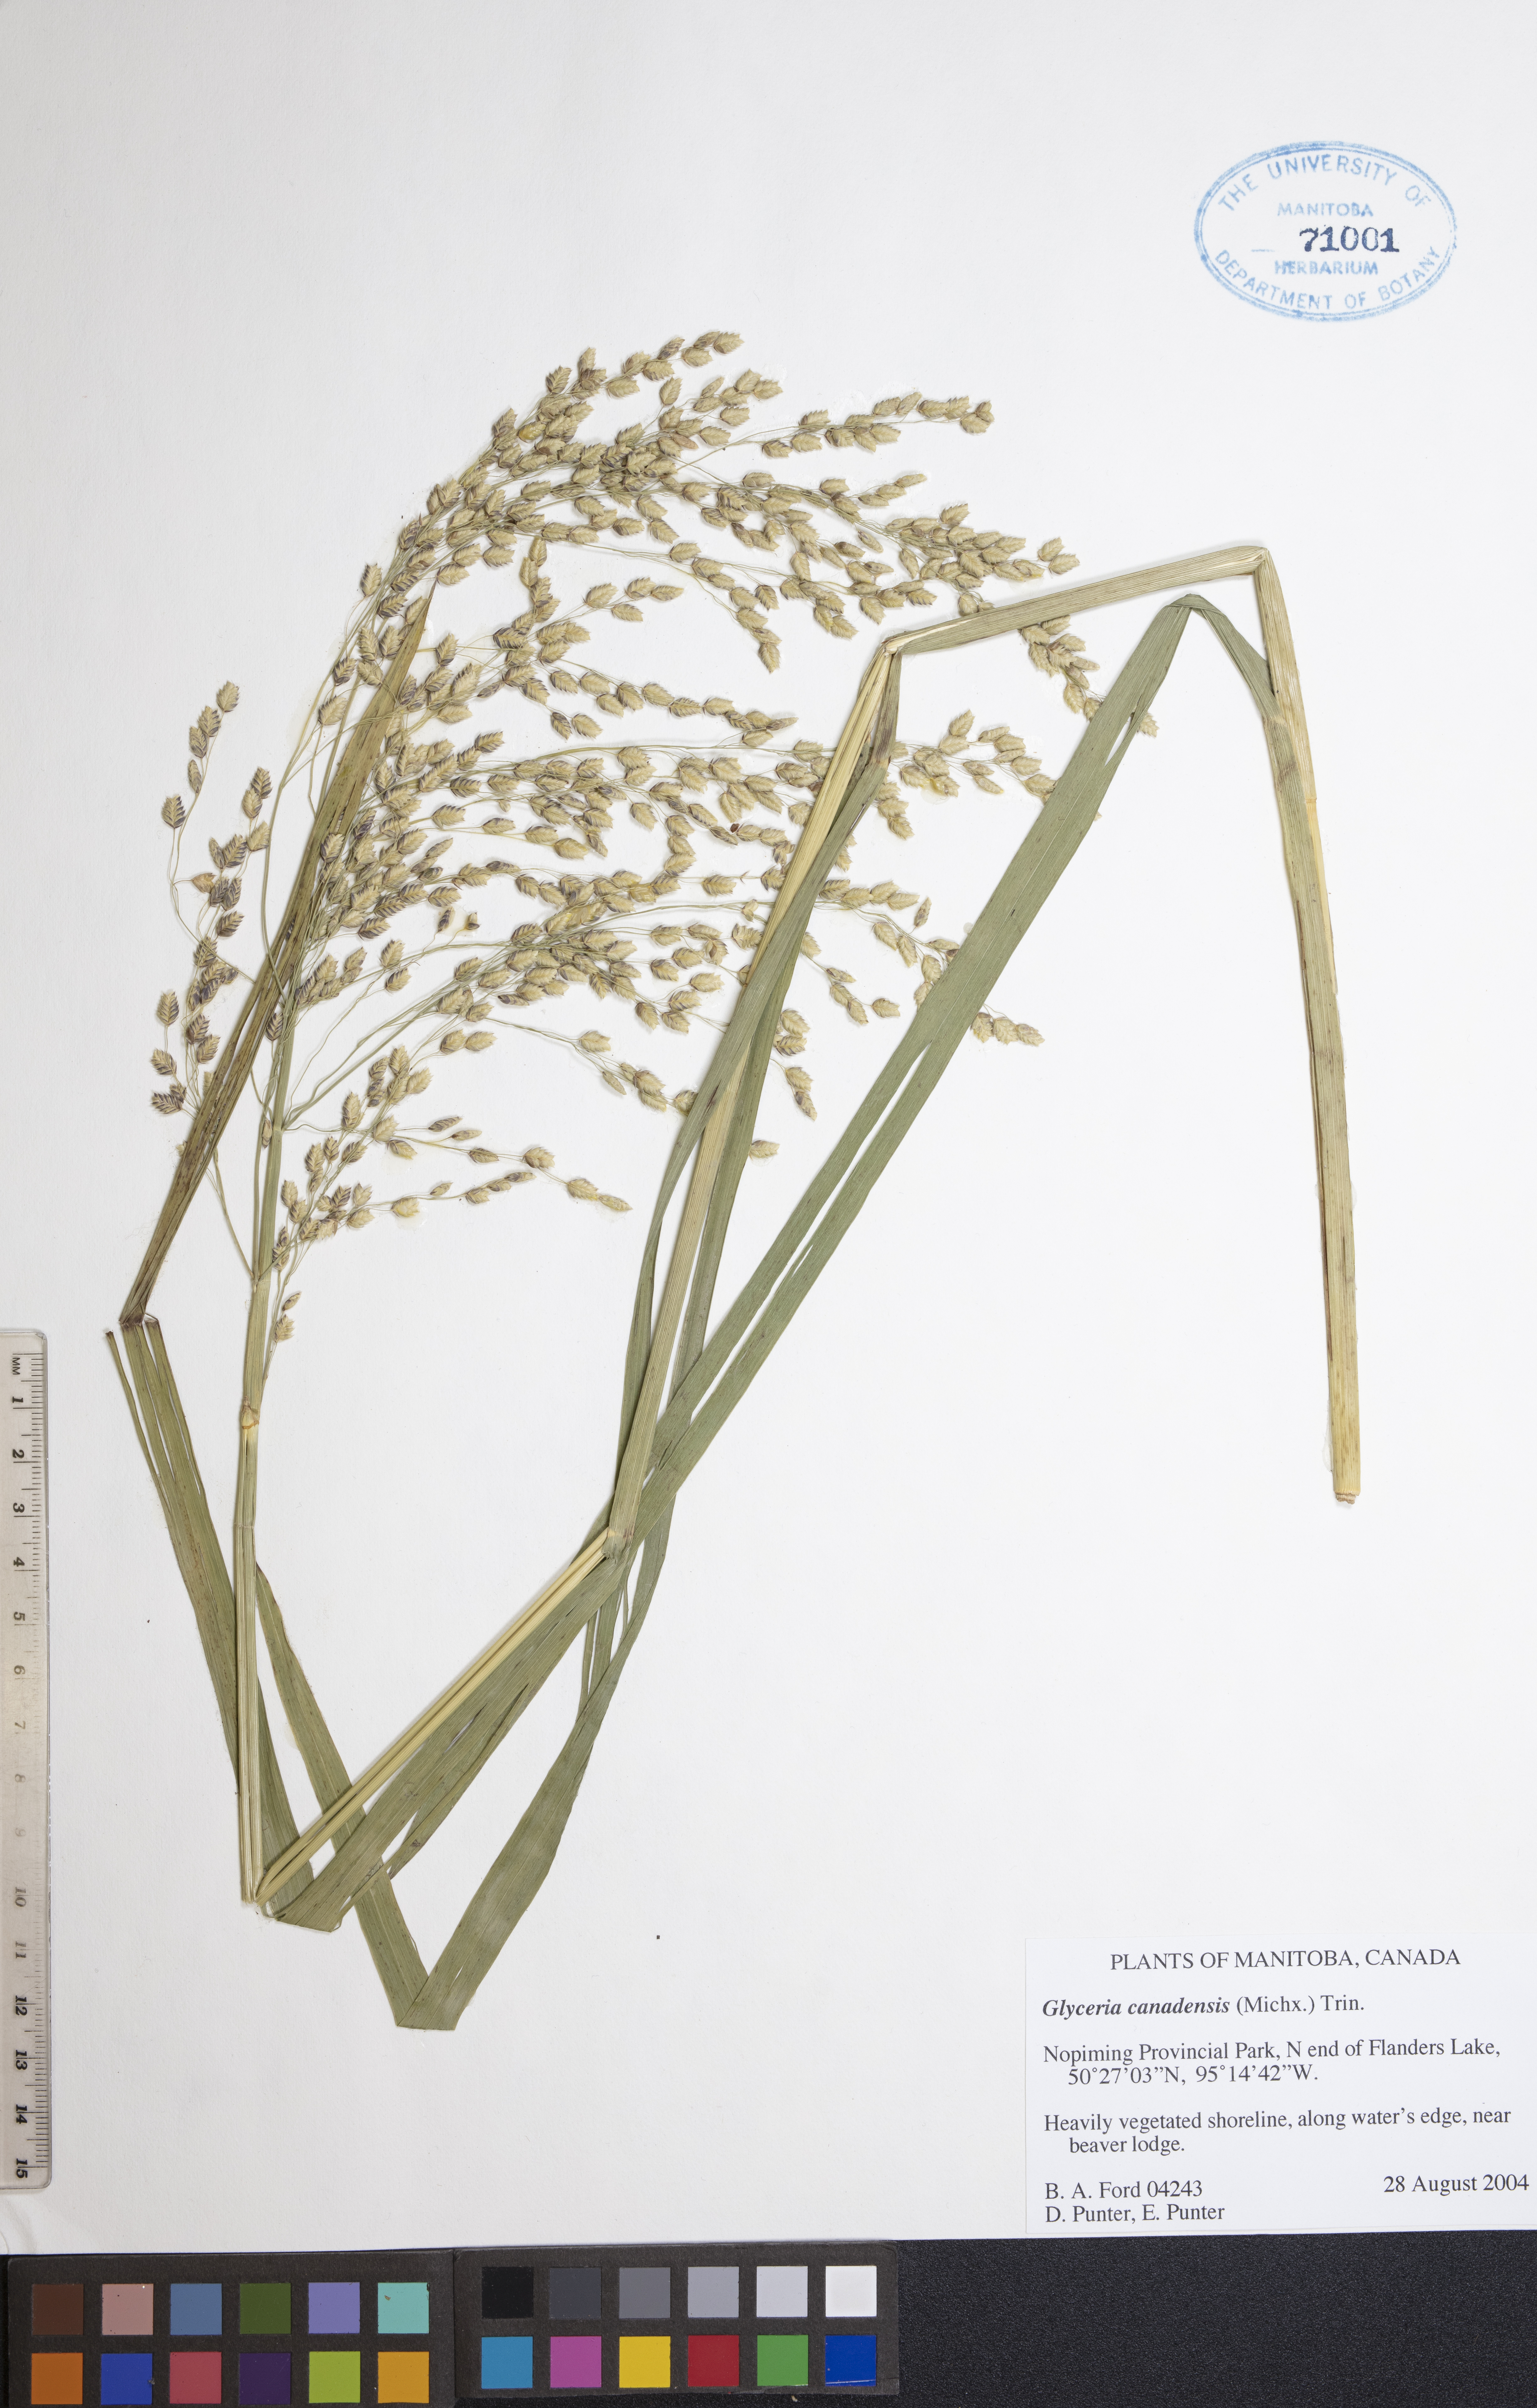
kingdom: Plantae
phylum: Tracheophyta
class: Liliopsida
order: Poales
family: Poaceae
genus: Glyceria
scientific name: Glyceria canadensis
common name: Canada mannagrass
